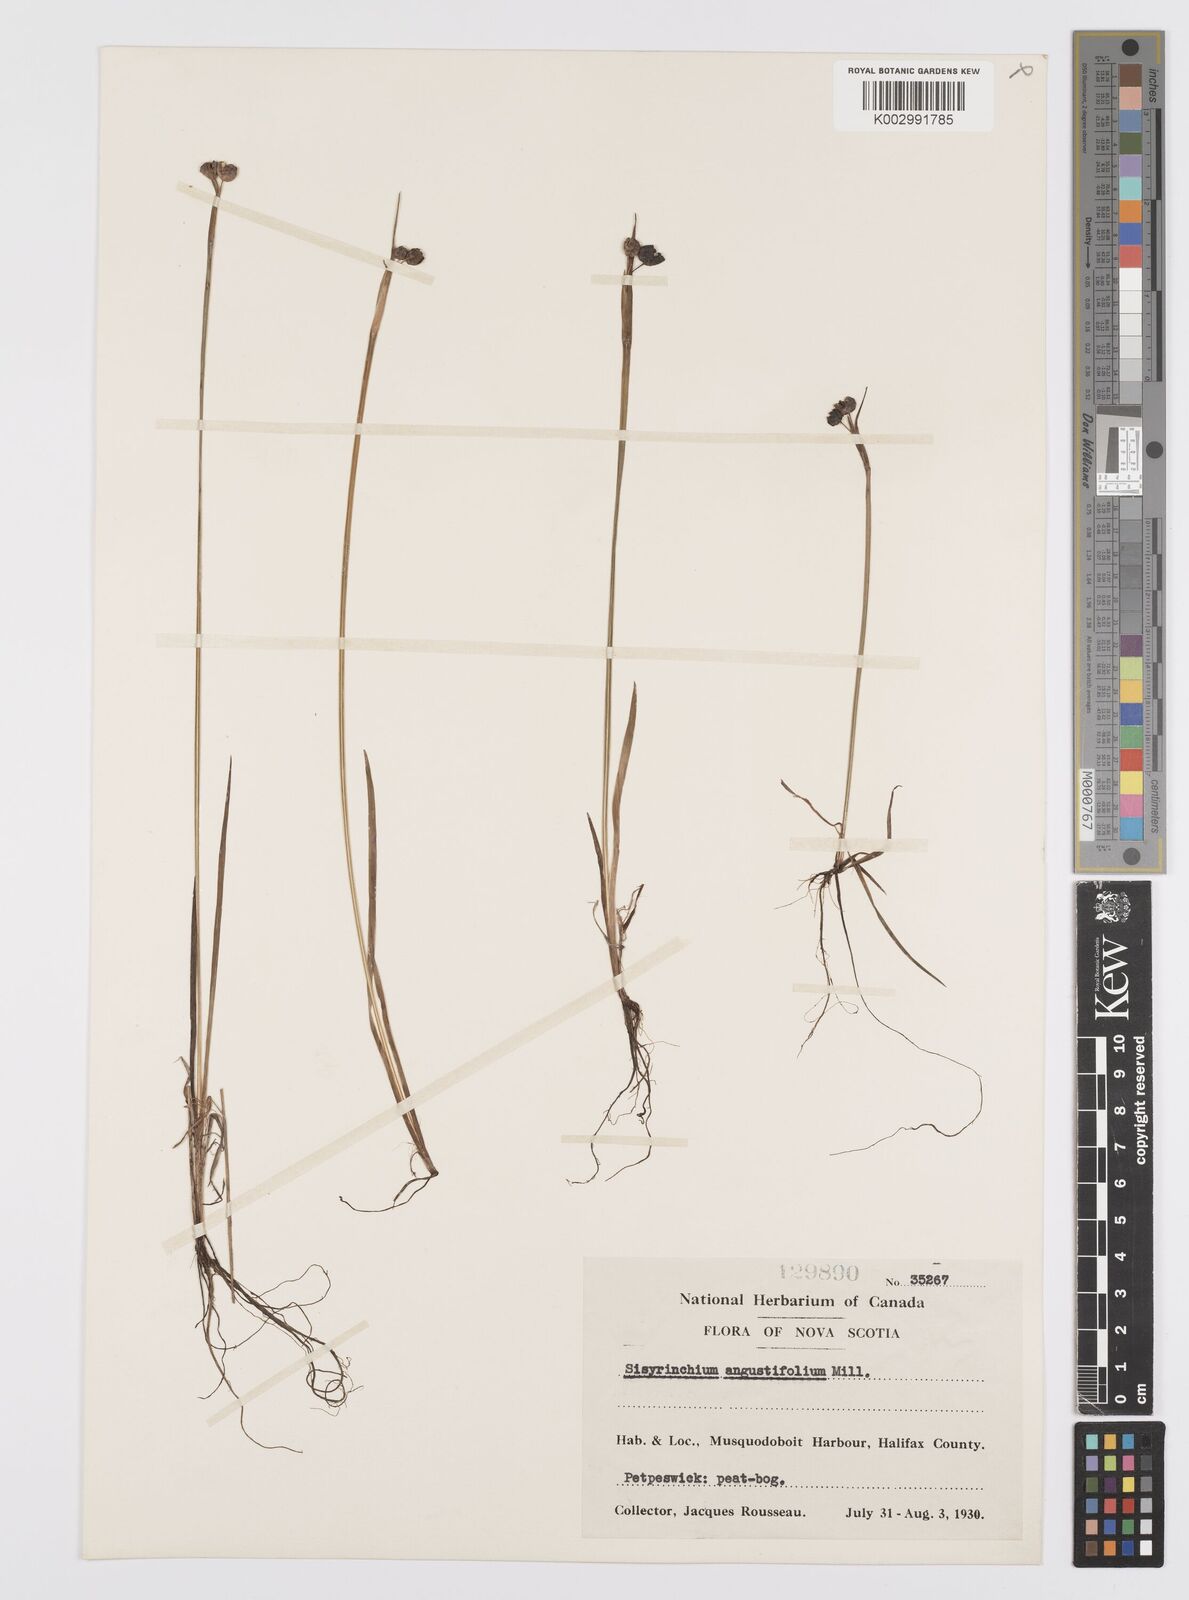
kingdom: Plantae
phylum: Tracheophyta
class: Liliopsida
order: Asparagales
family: Iridaceae
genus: Sisyrinchium
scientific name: Sisyrinchium bermudiana
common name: Blue-eyed-grass
